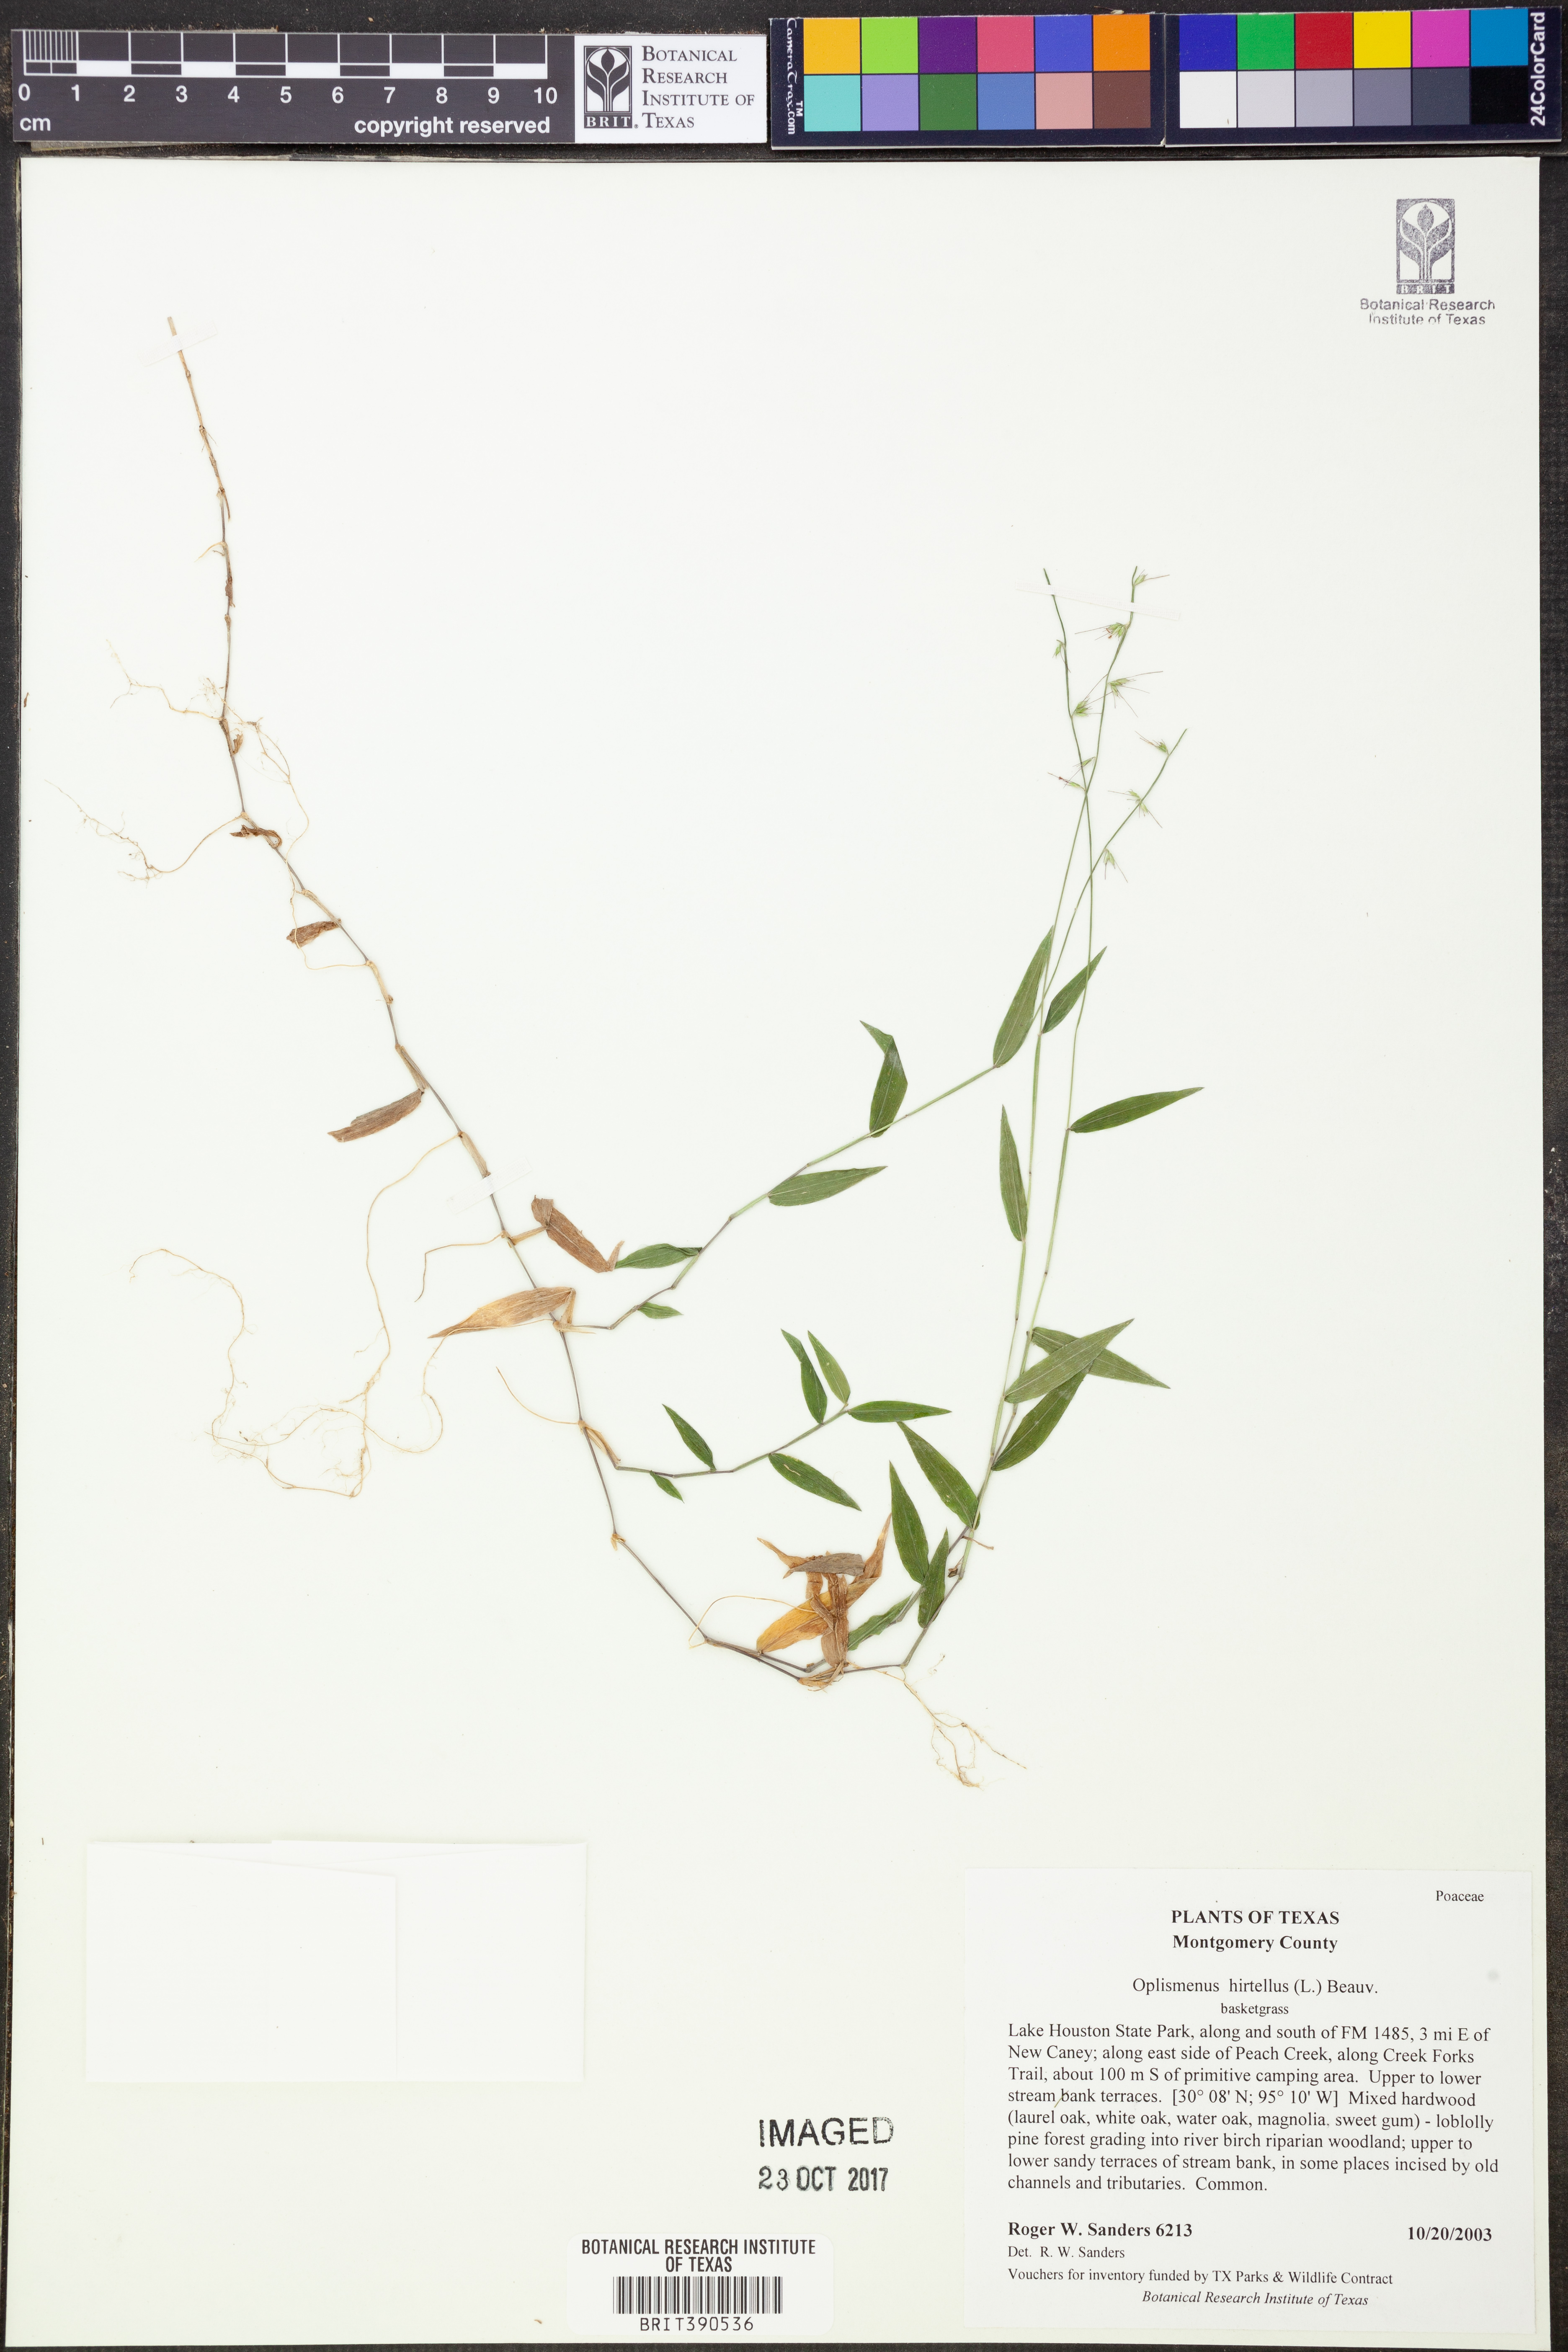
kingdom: Plantae
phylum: Tracheophyta
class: Liliopsida
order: Poales
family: Poaceae
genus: Oplismenus
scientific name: Oplismenus hirtellus
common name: Basketgrass
